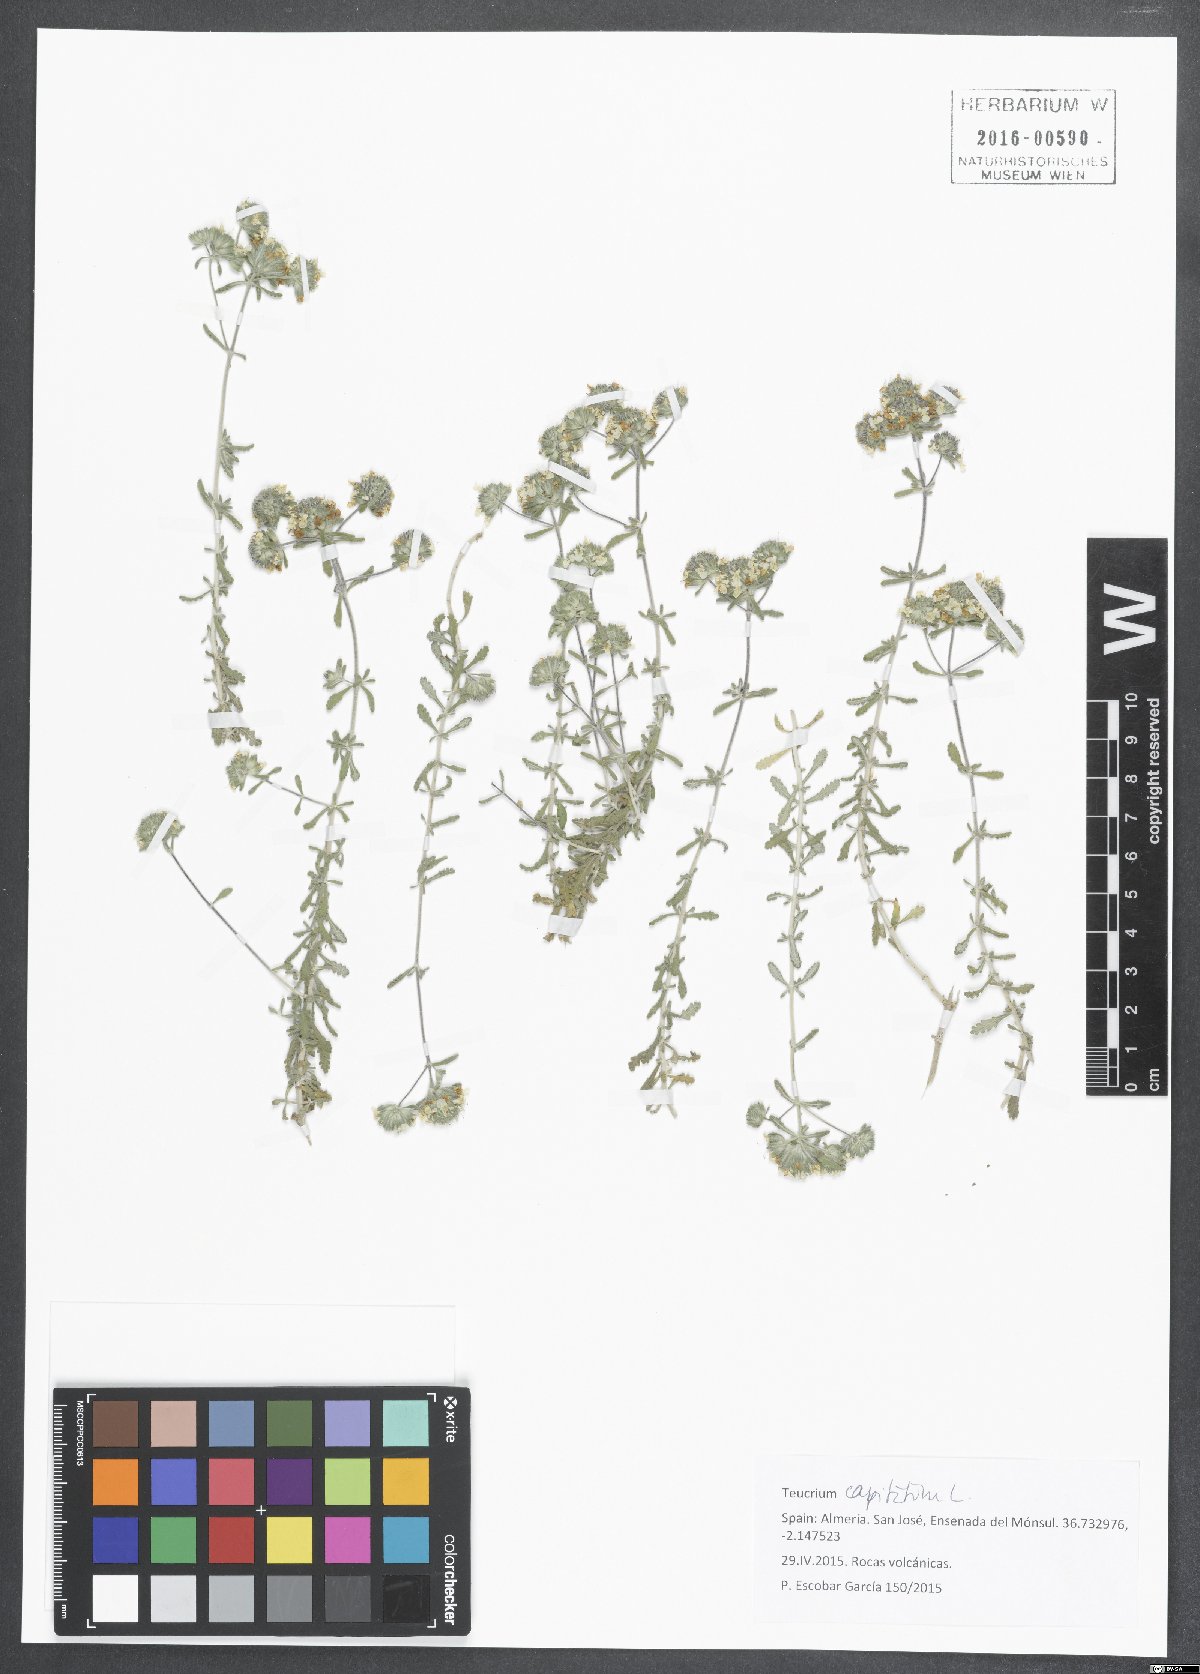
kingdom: Plantae
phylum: Tracheophyta
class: Magnoliopsida
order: Lamiales
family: Lamiaceae
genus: Teucrium
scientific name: Teucrium capitatum
